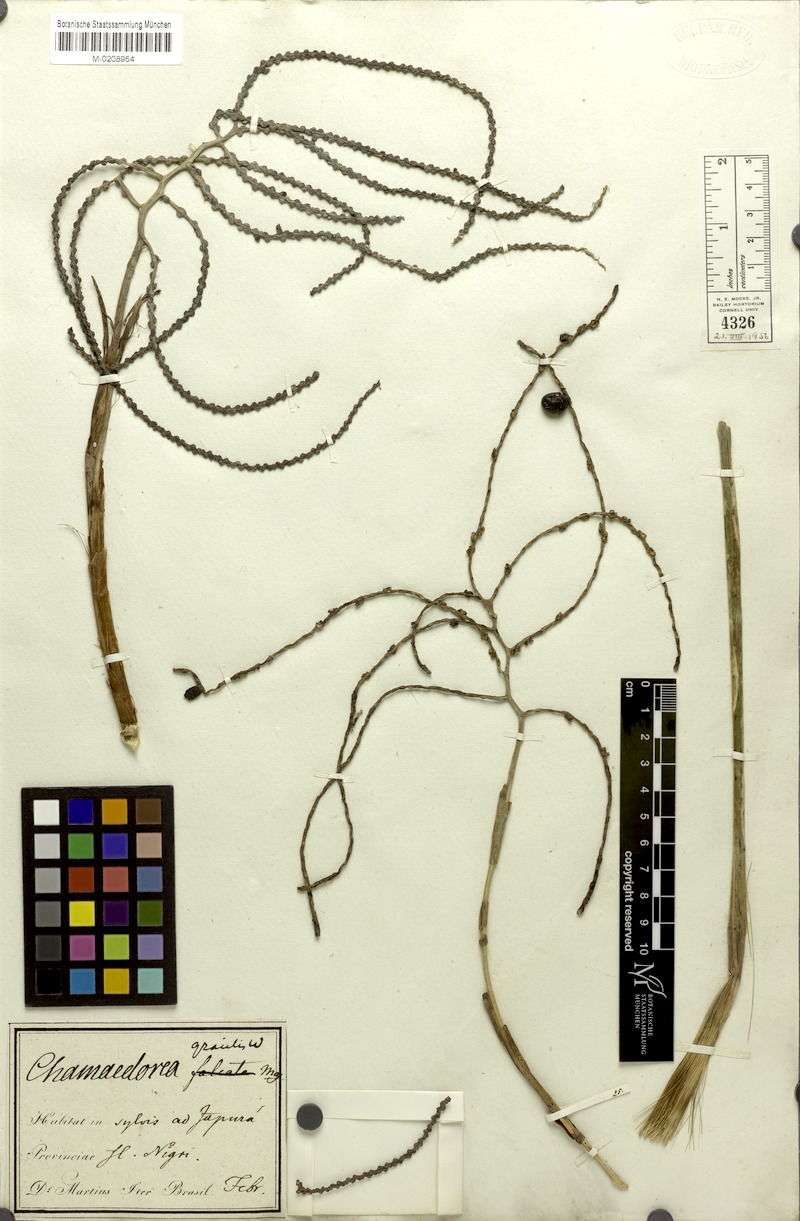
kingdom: Plantae
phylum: Tracheophyta
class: Liliopsida
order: Arecales
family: Arecaceae
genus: Chamaedorea
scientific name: Chamaedorea pinnatifrons
